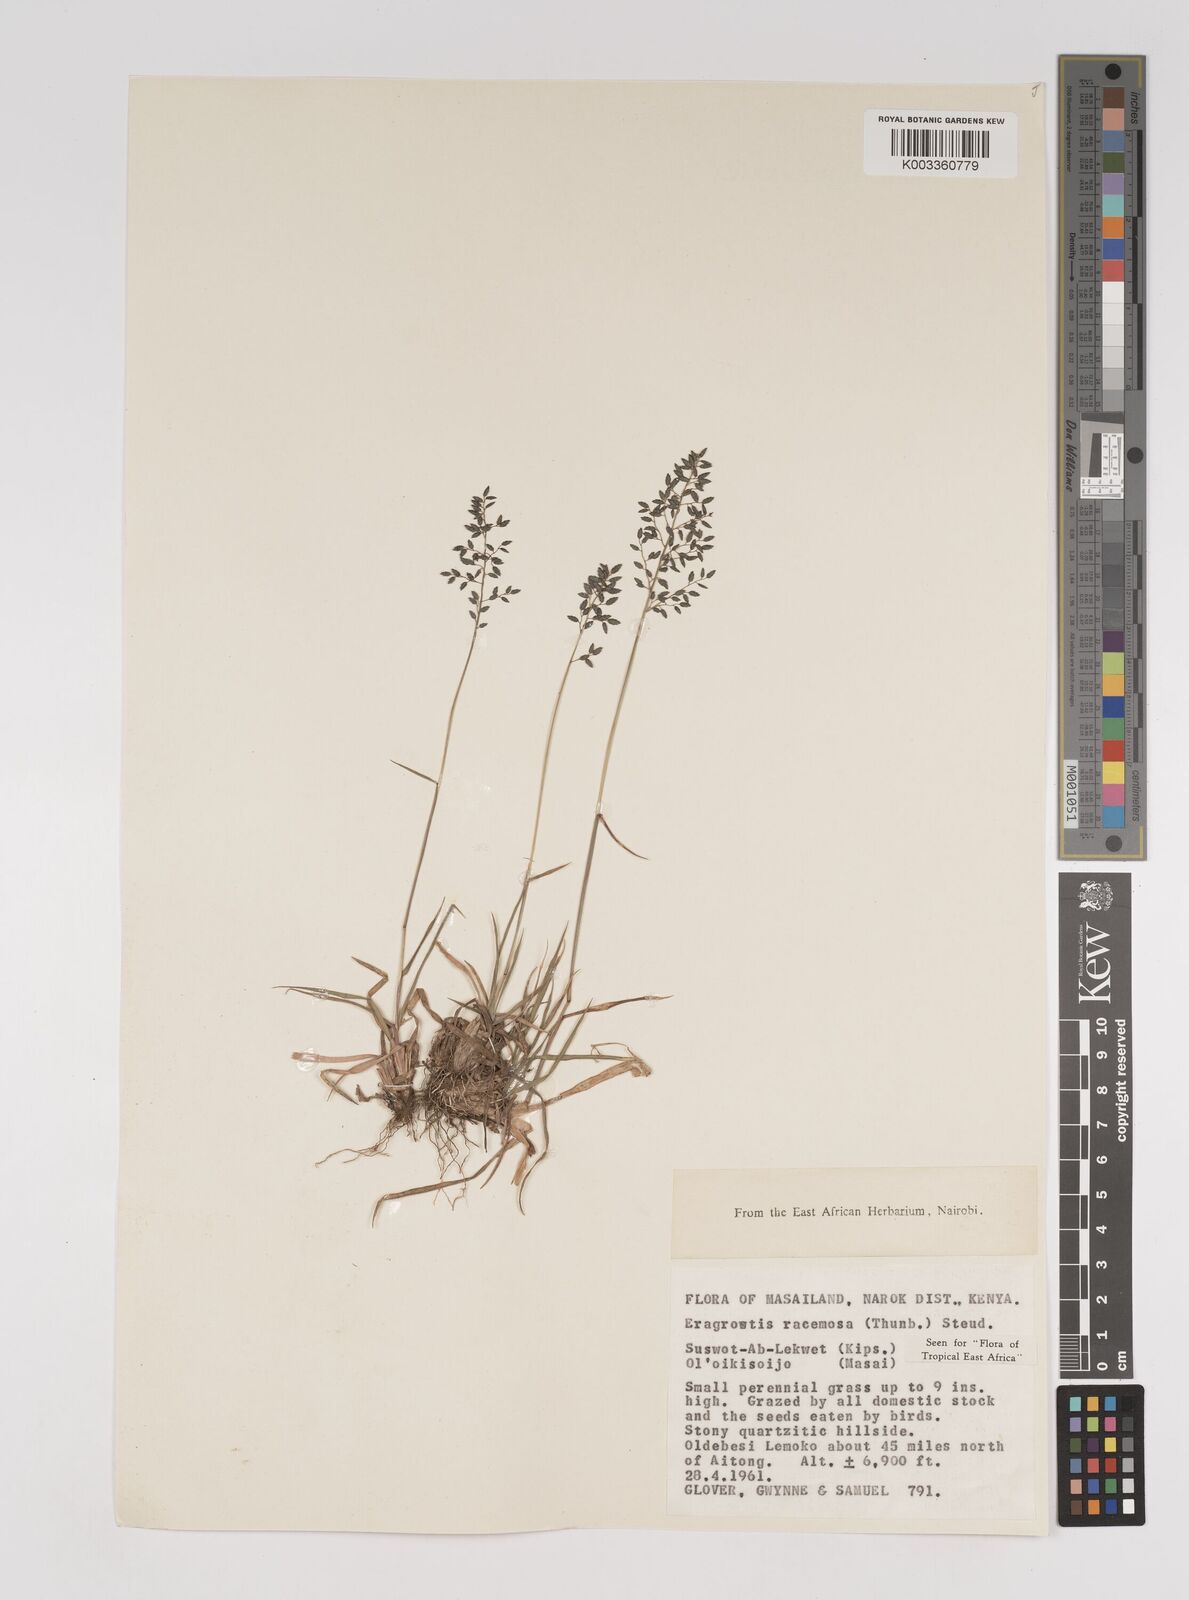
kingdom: Plantae
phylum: Tracheophyta
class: Liliopsida
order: Poales
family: Poaceae
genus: Eragrostis
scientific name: Eragrostis racemosa
